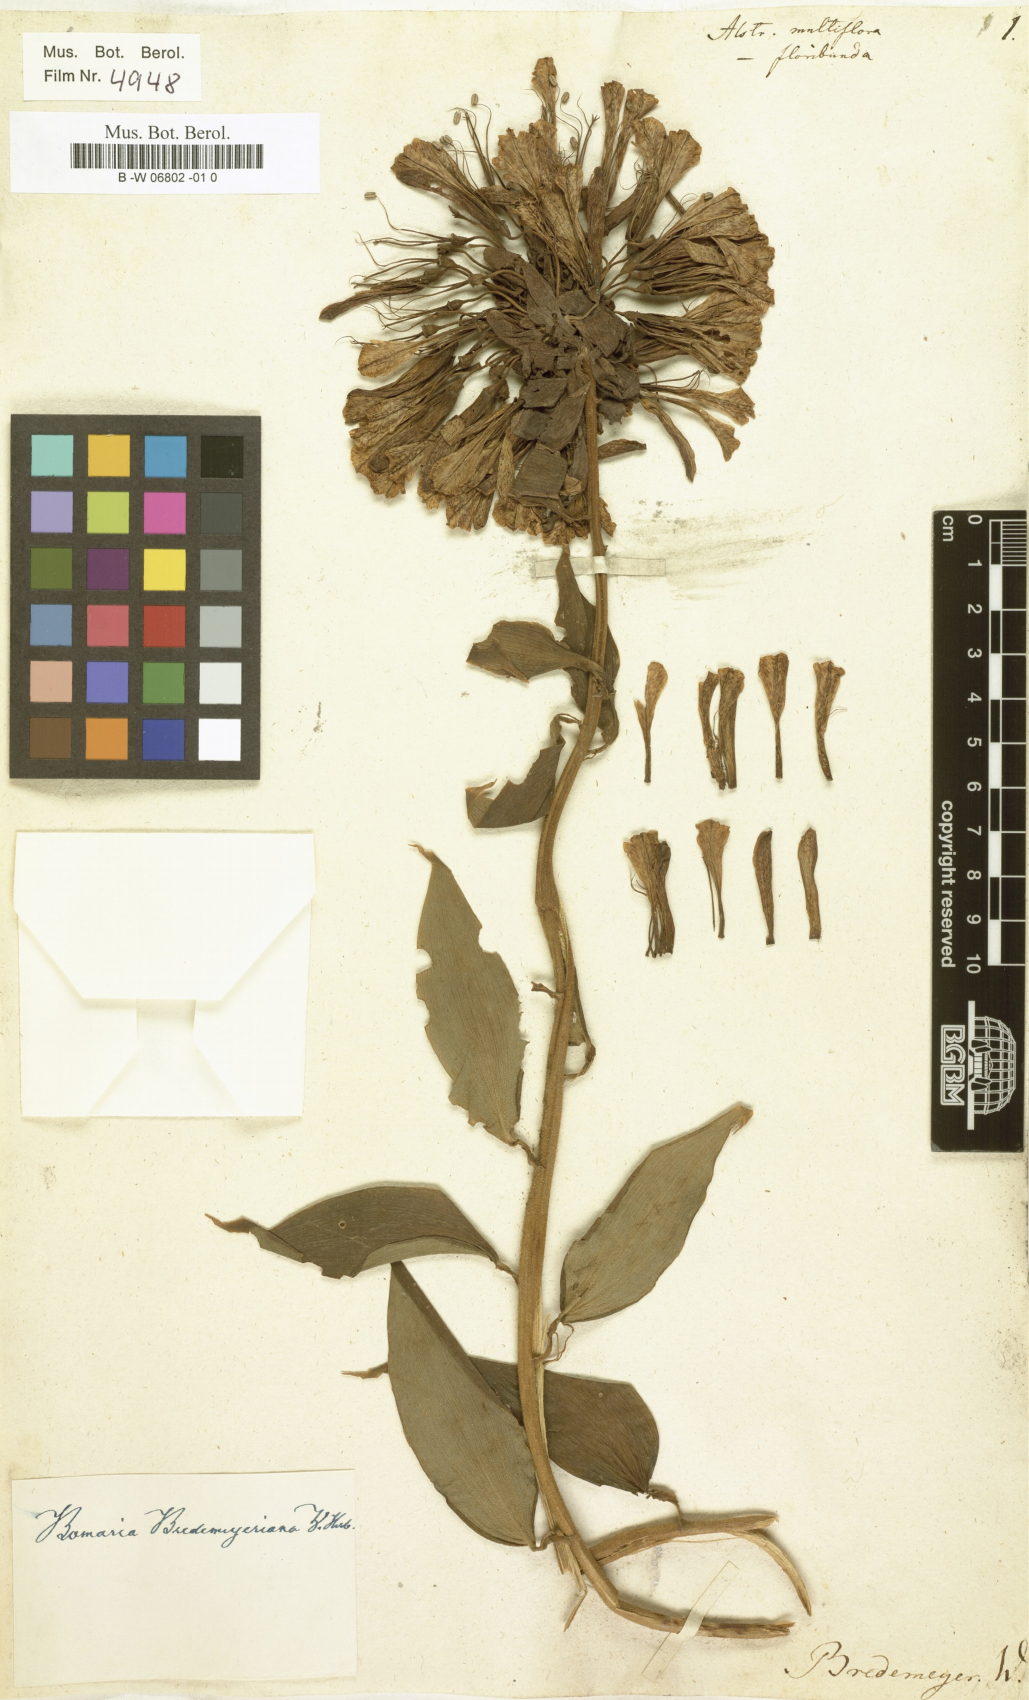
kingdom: Plantae
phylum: Tracheophyta
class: Liliopsida
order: Liliales
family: Alstroemeriaceae
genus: Bomarea
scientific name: Bomarea multiflora
